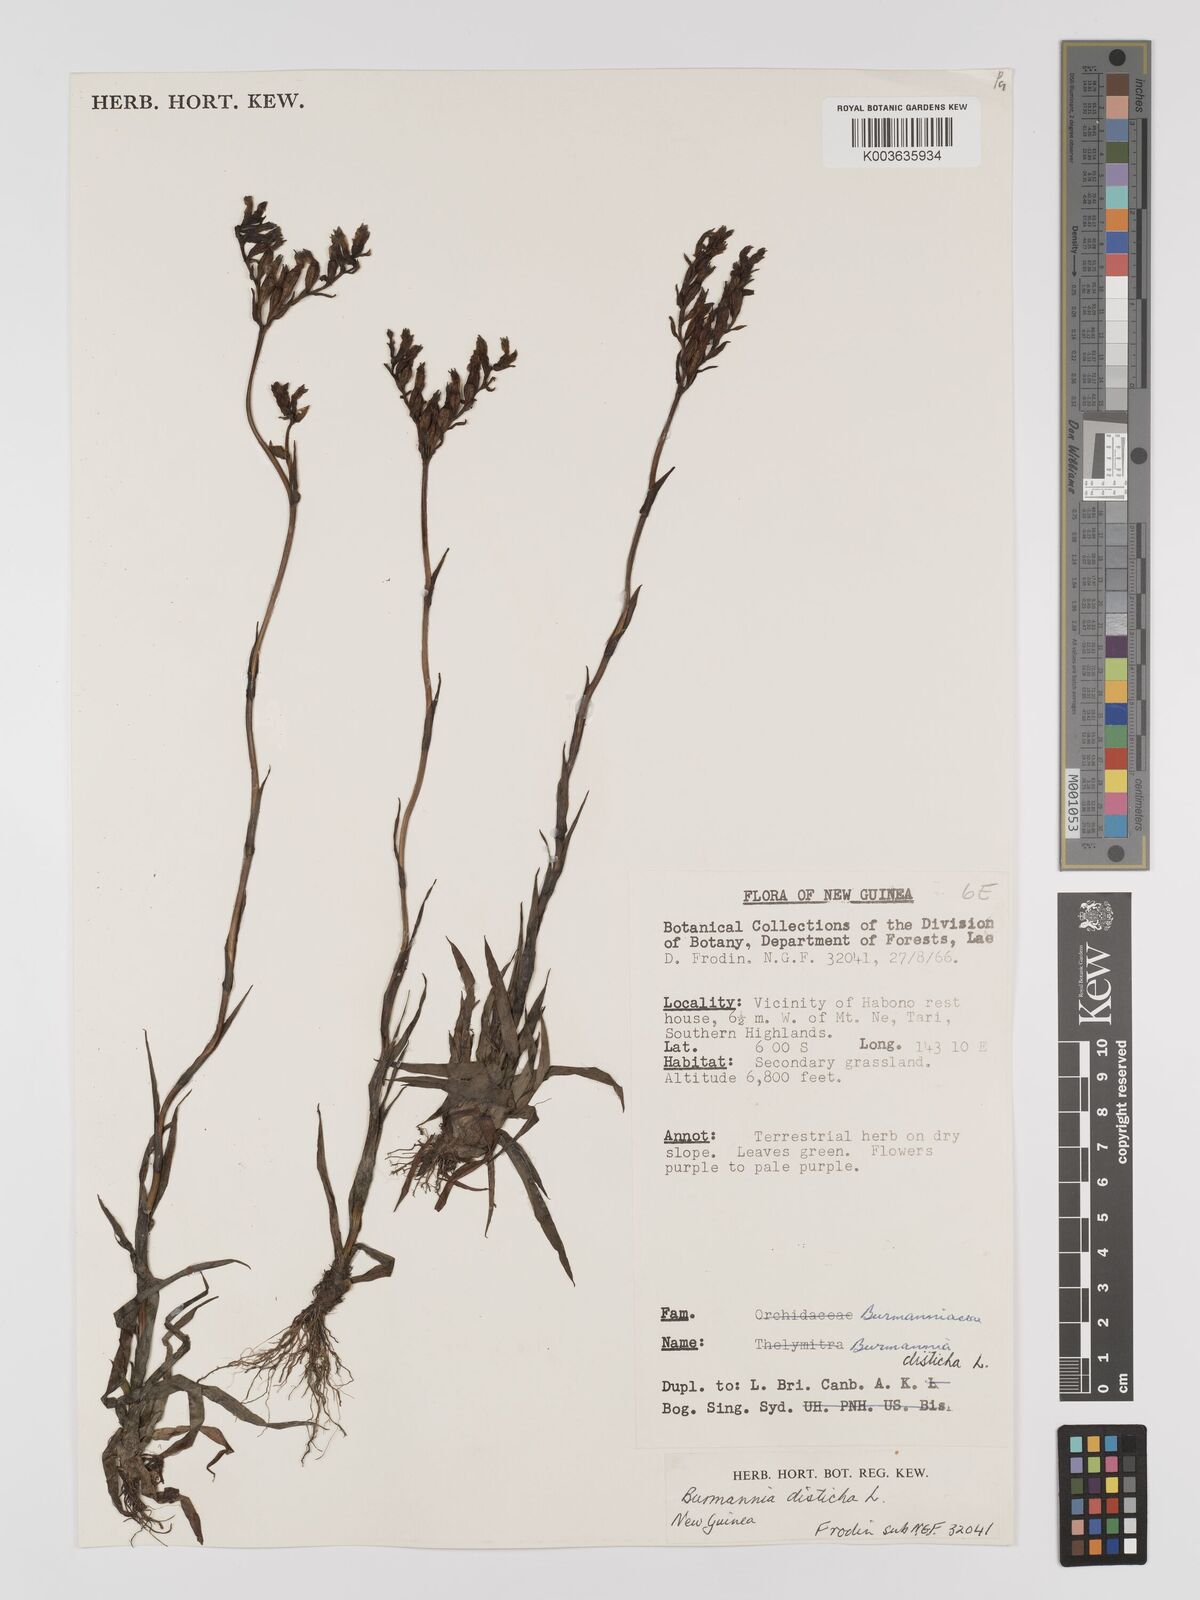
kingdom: Plantae
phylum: Tracheophyta
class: Liliopsida
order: Dioscoreales
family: Burmanniaceae
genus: Burmannia
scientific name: Burmannia disticha
